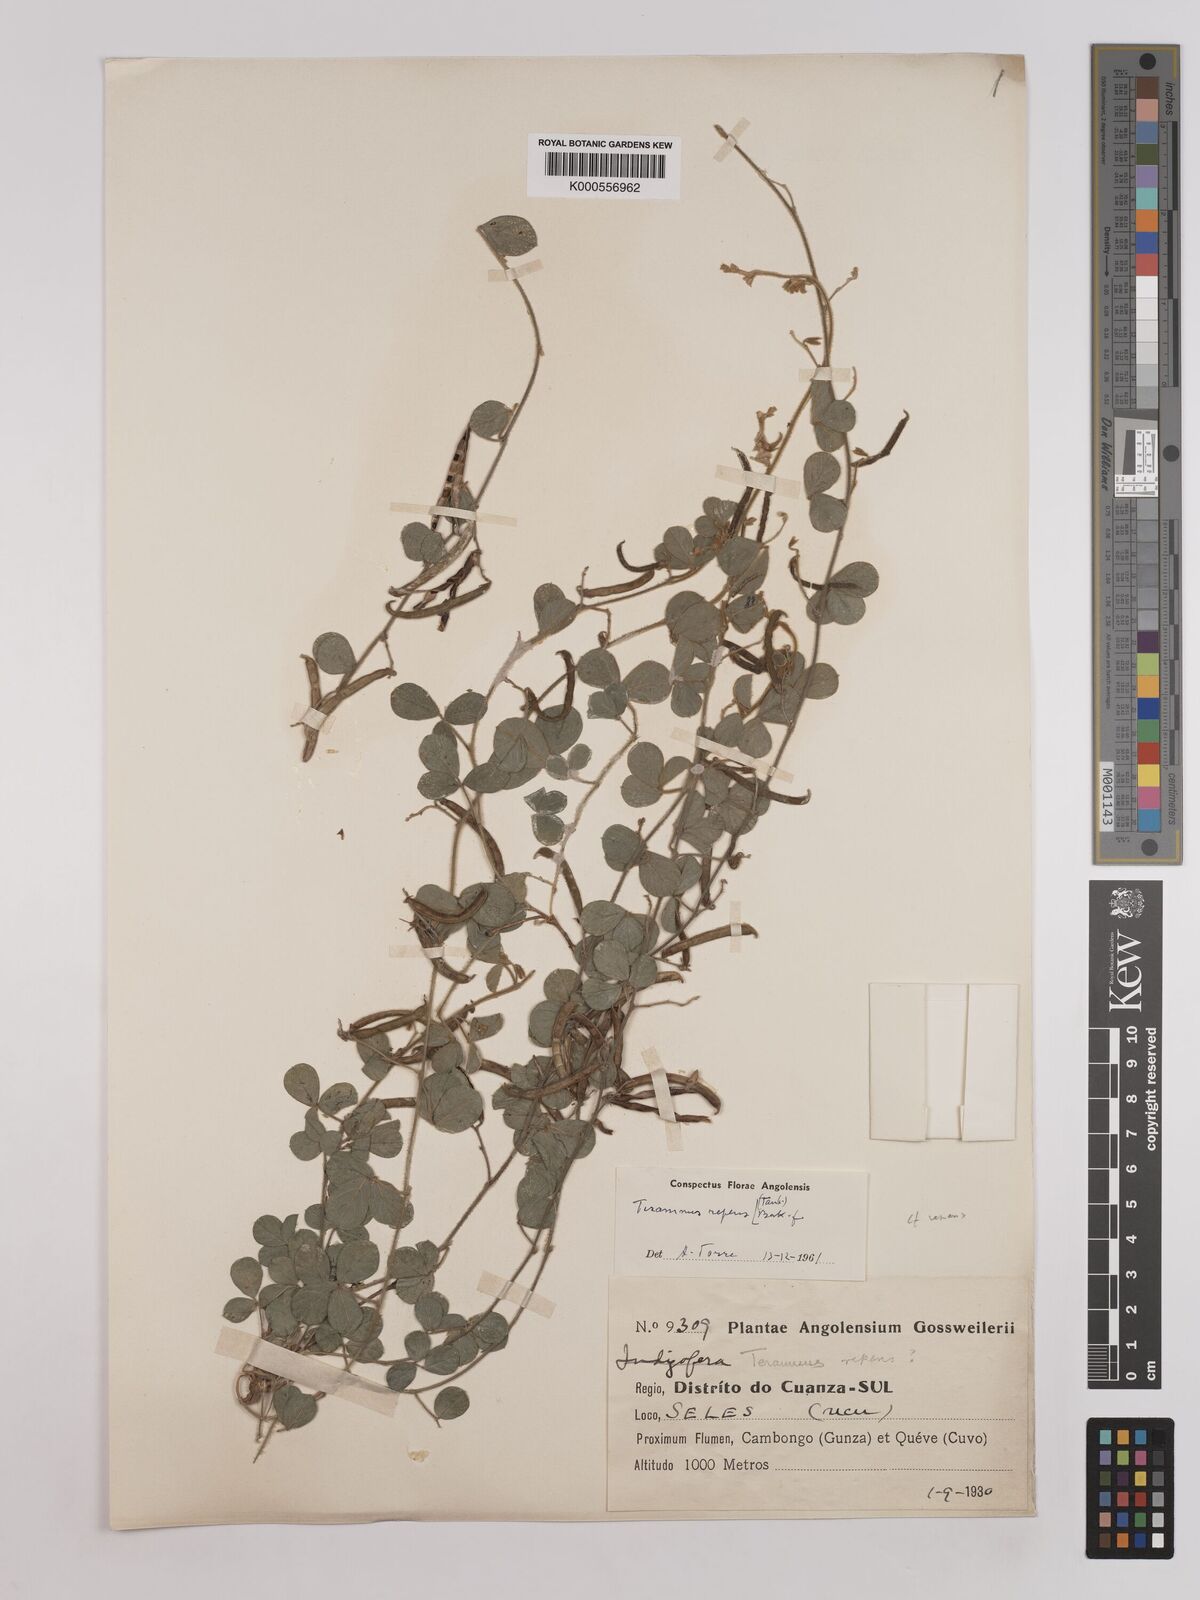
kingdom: Plantae
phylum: Tracheophyta
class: Magnoliopsida
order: Fabales
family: Fabaceae
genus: Cullen
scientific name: Cullen tomentosum
